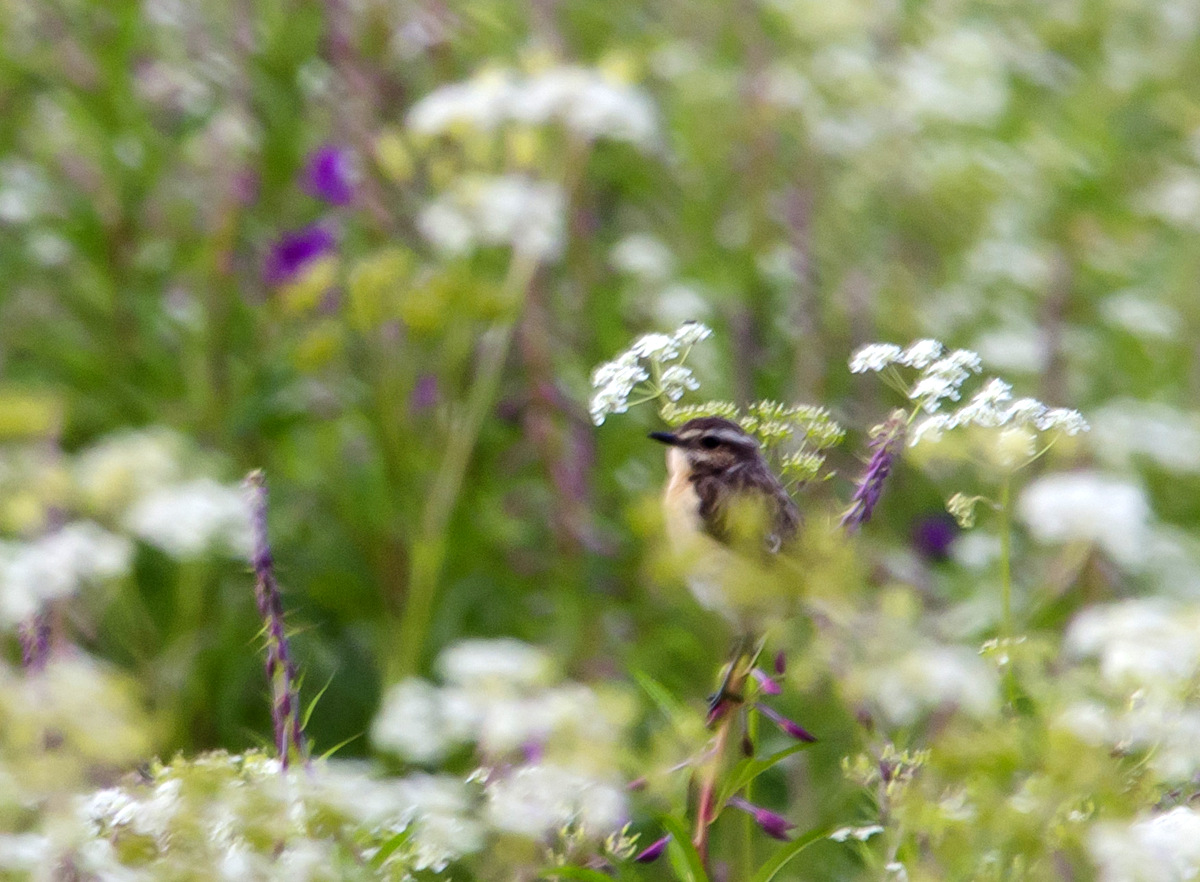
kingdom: Animalia
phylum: Chordata
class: Aves
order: Passeriformes
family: Muscicapidae
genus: Saxicola
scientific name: Saxicola rubetra
